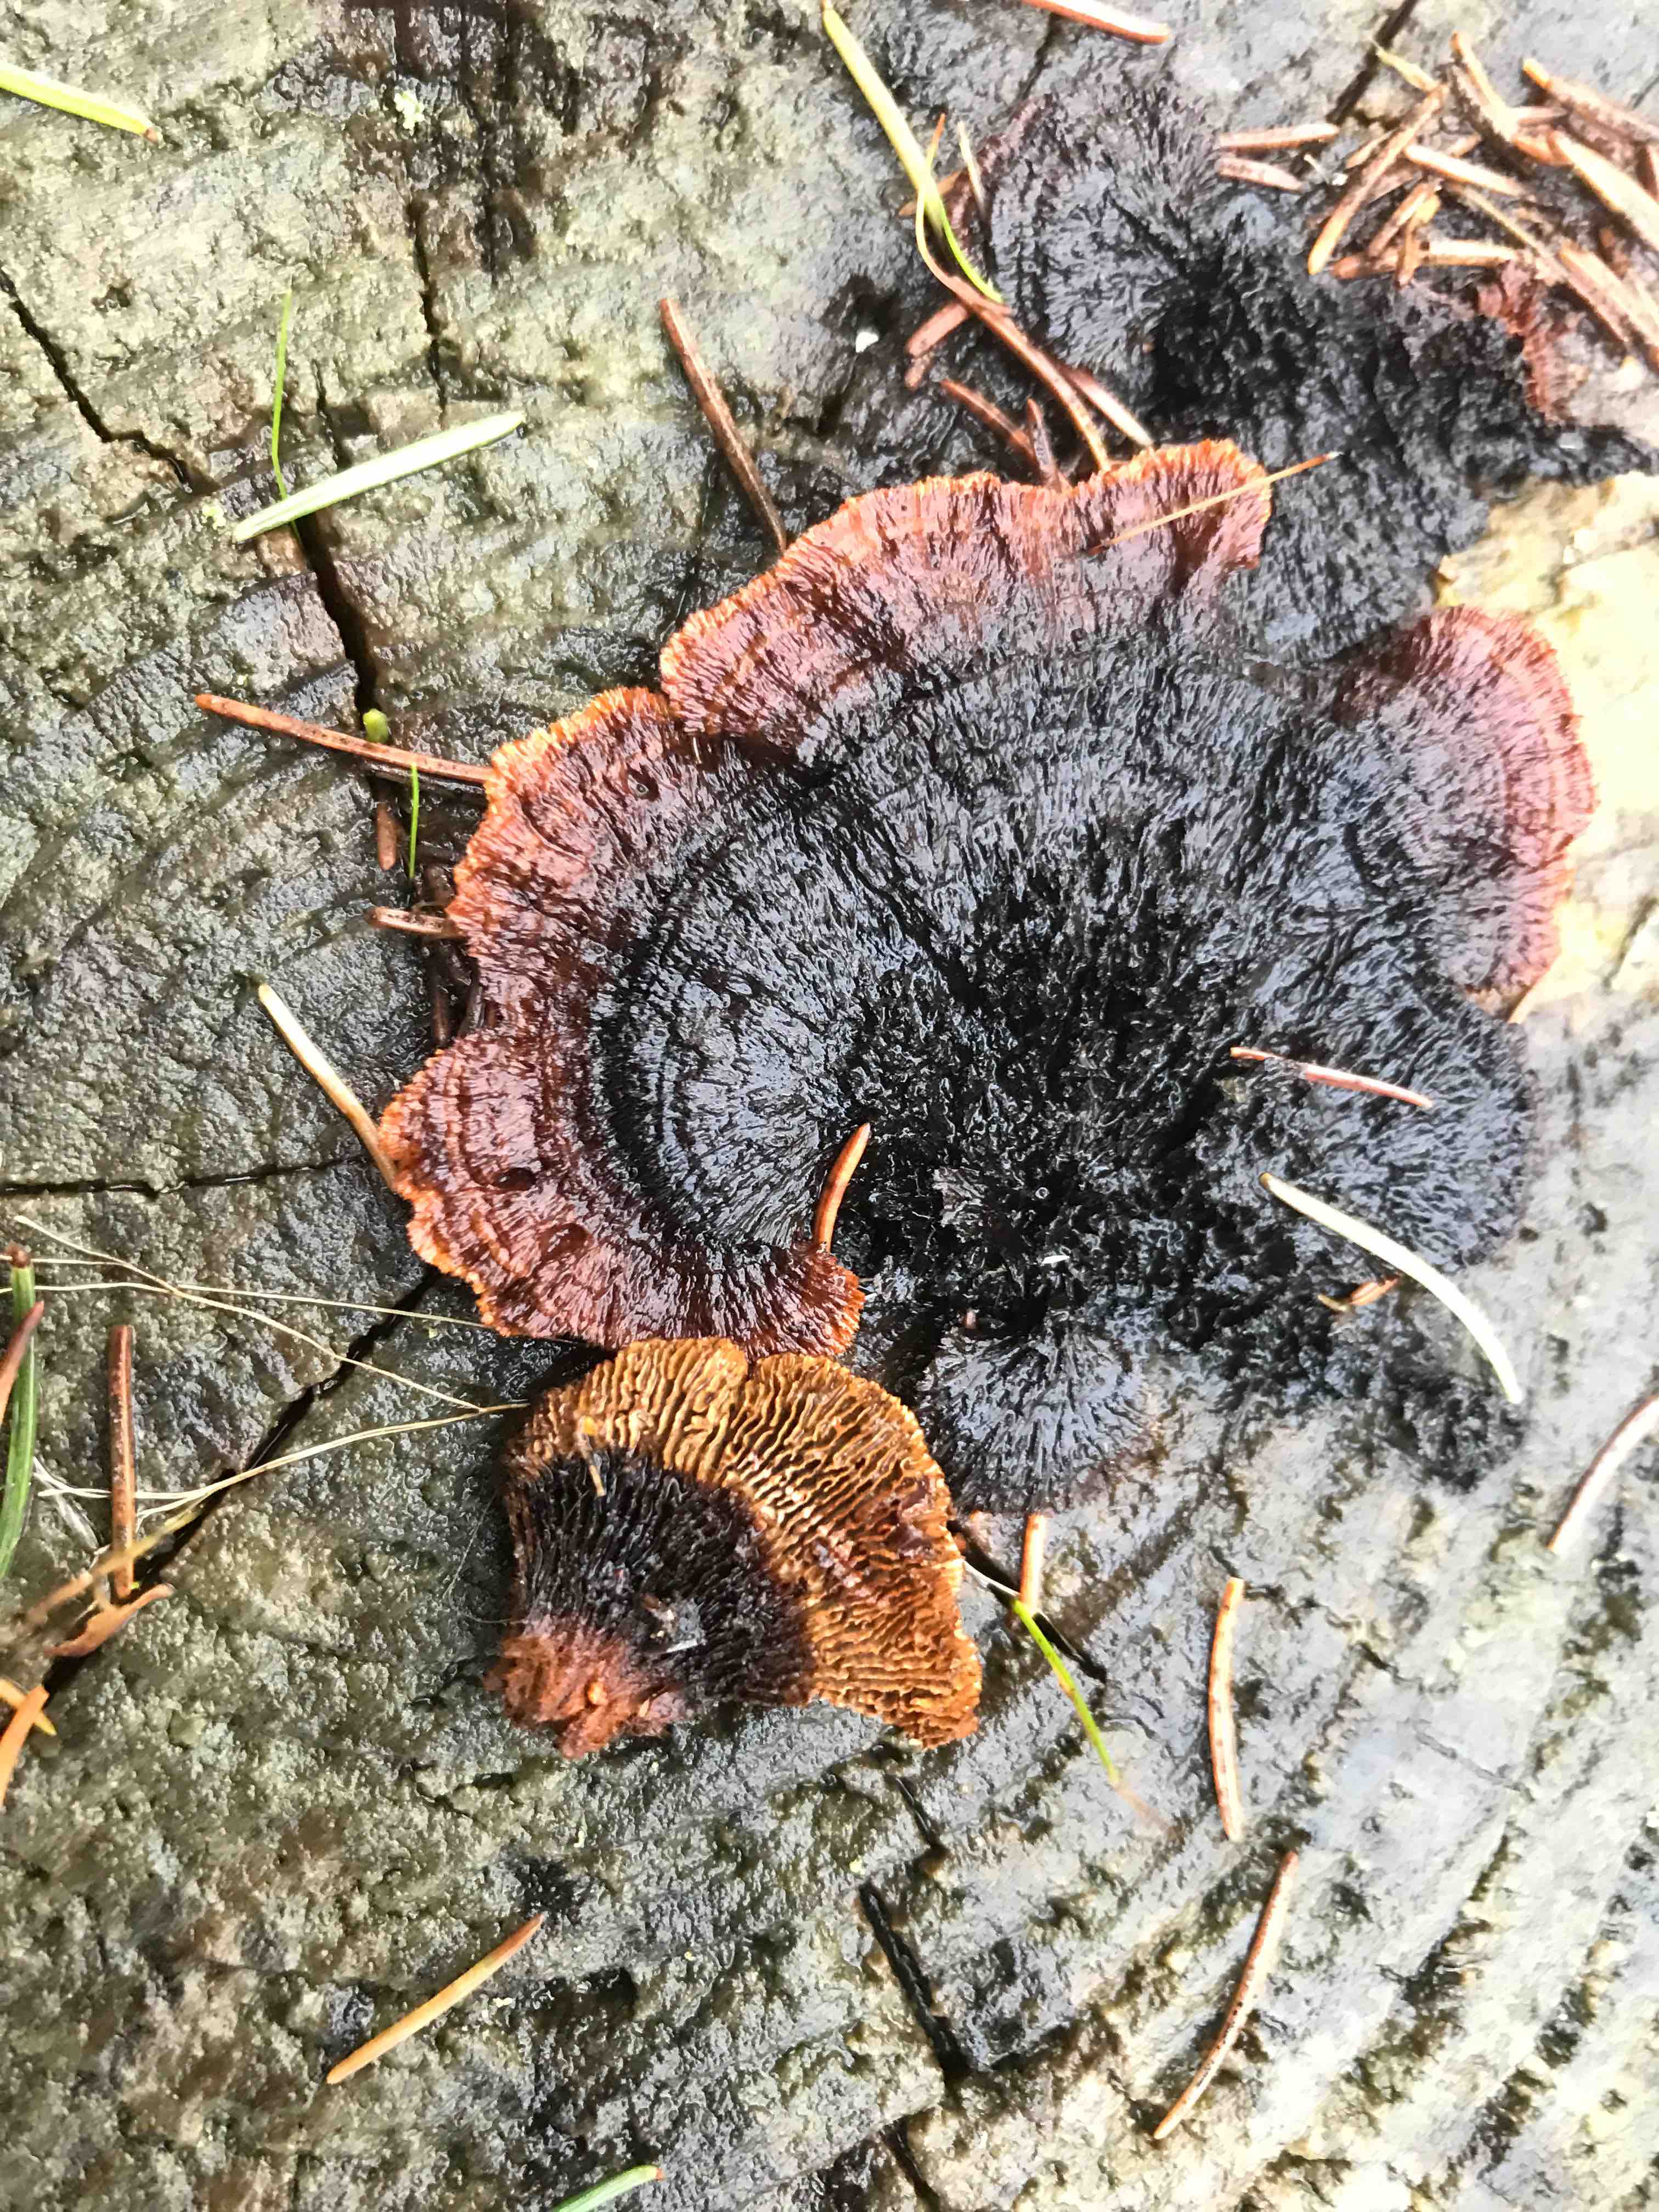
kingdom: Fungi
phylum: Basidiomycota
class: Agaricomycetes
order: Gloeophyllales
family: Gloeophyllaceae
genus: Gloeophyllum
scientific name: Gloeophyllum sepiarium
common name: fyrre-korkhat
